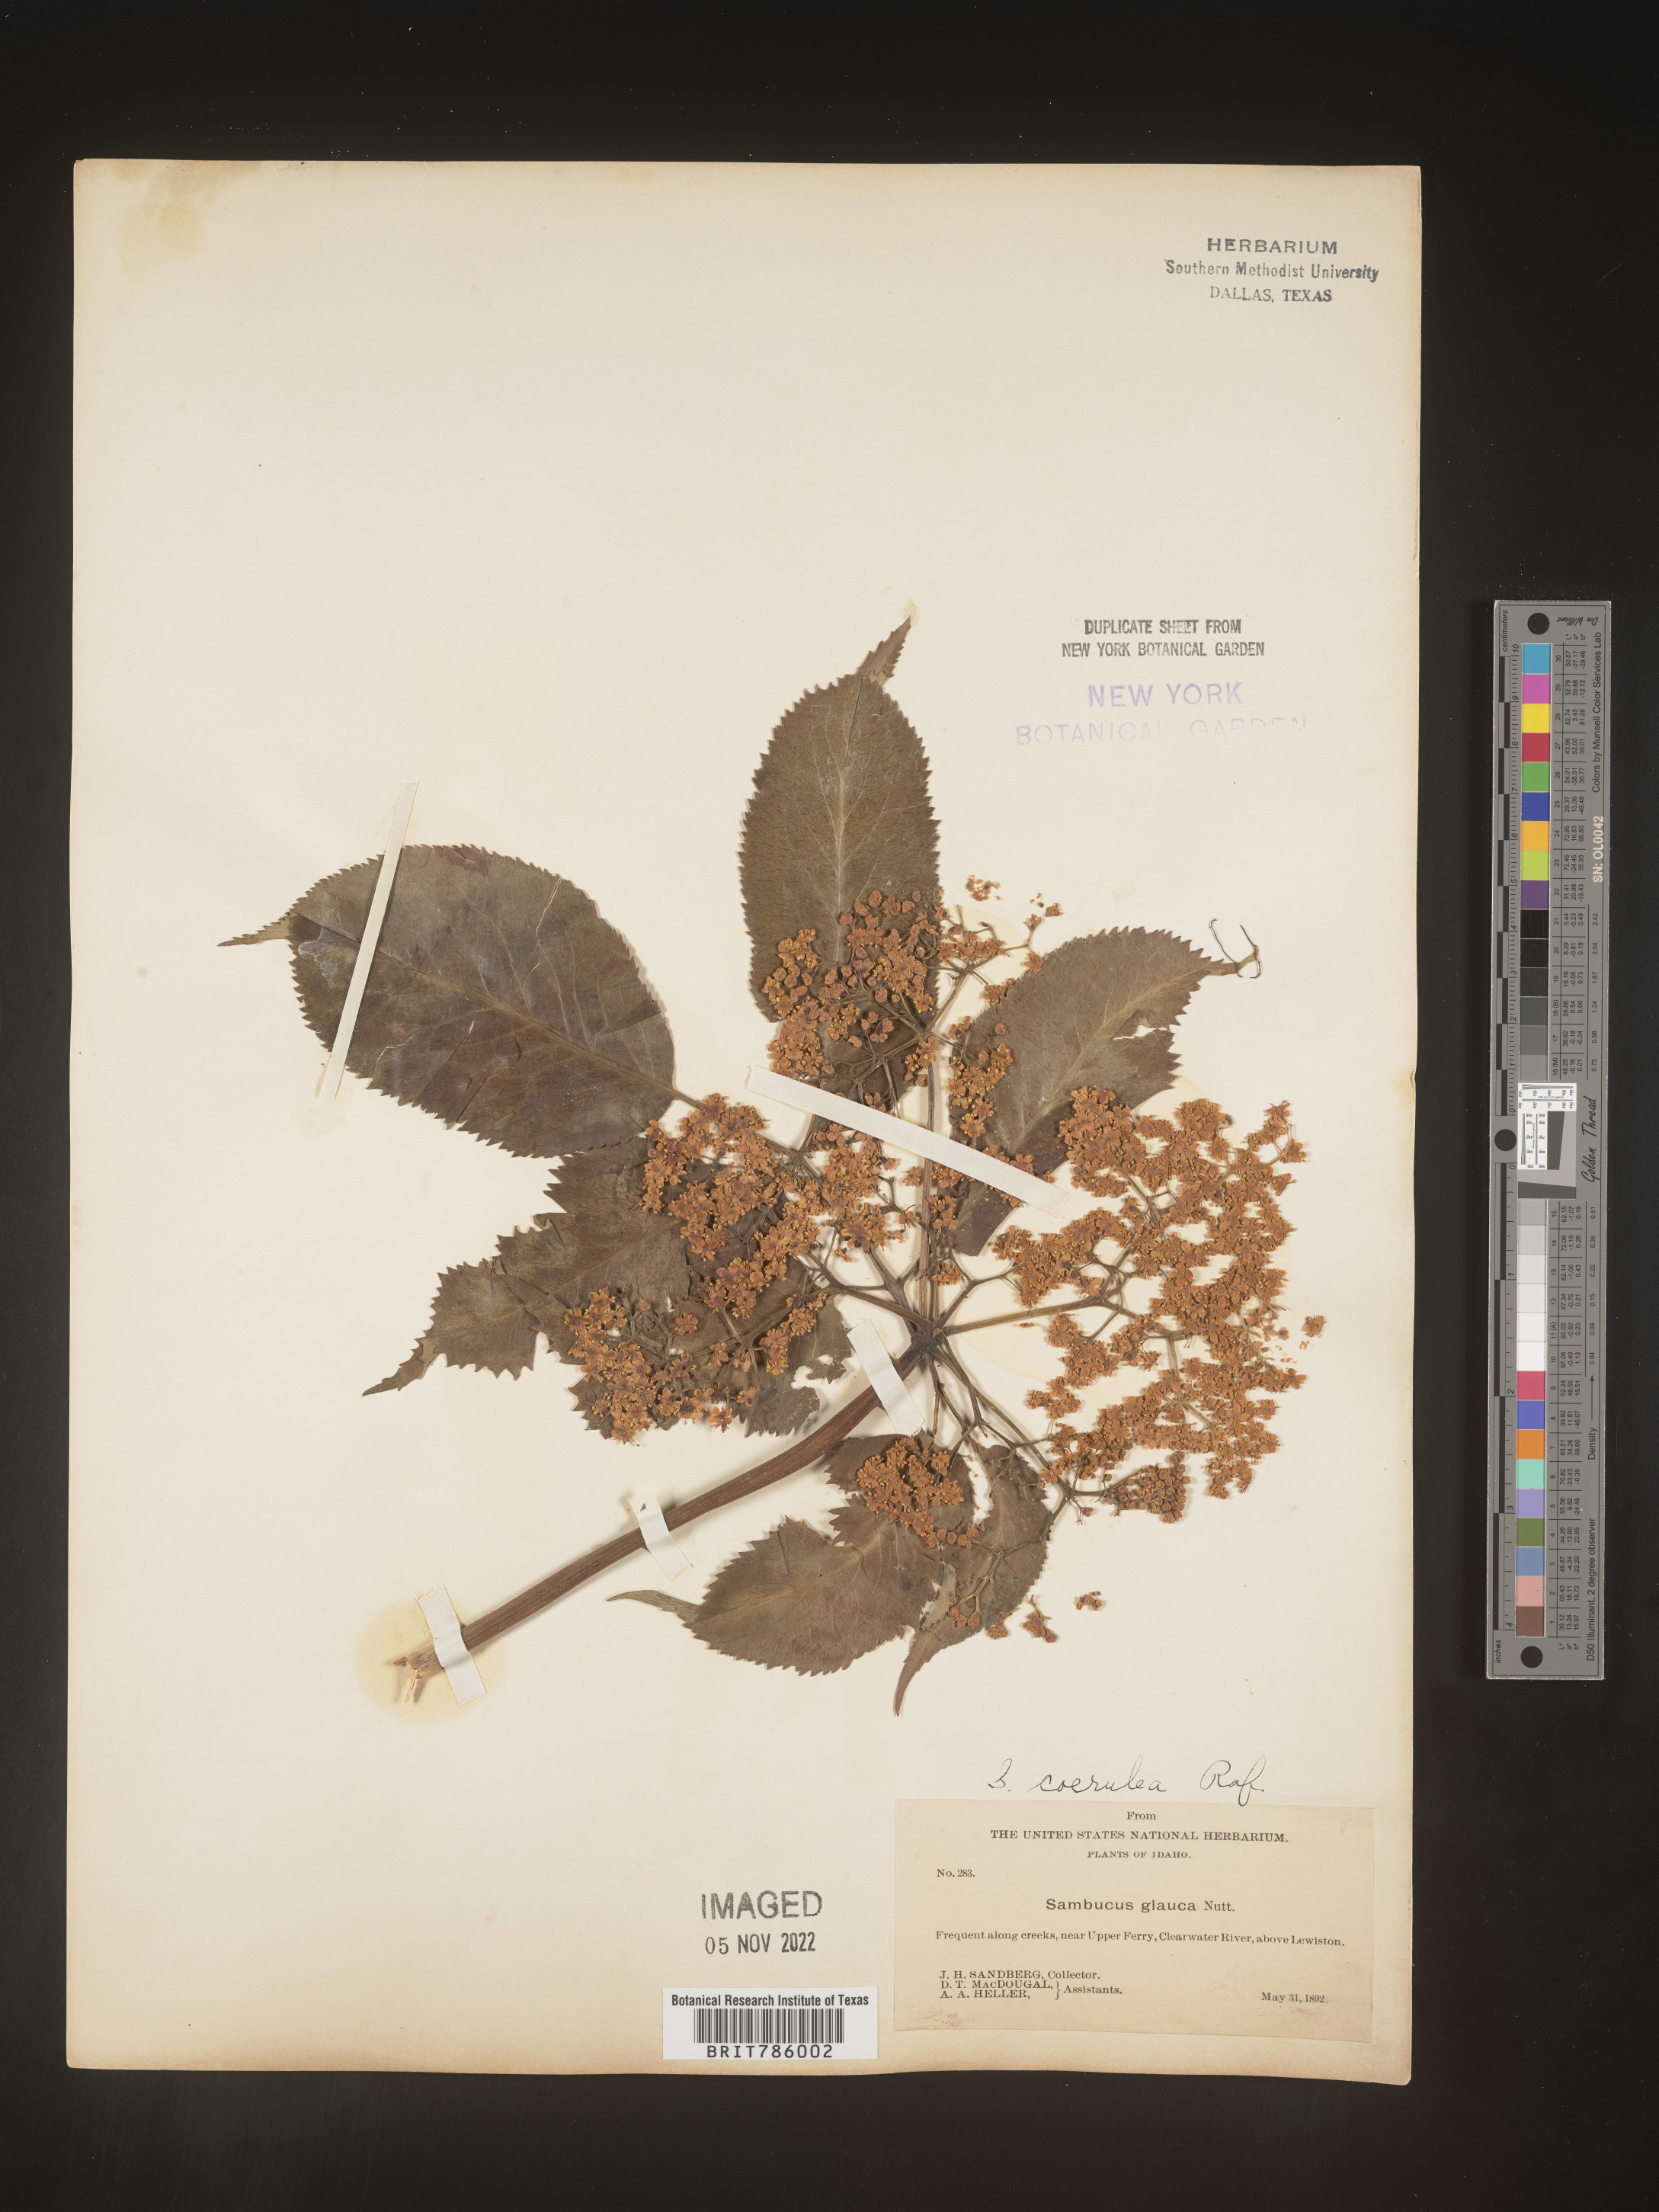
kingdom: Plantae
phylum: Tracheophyta
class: Magnoliopsida
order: Dipsacales
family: Viburnaceae
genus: Sambucus
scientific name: Sambucus caerulea
